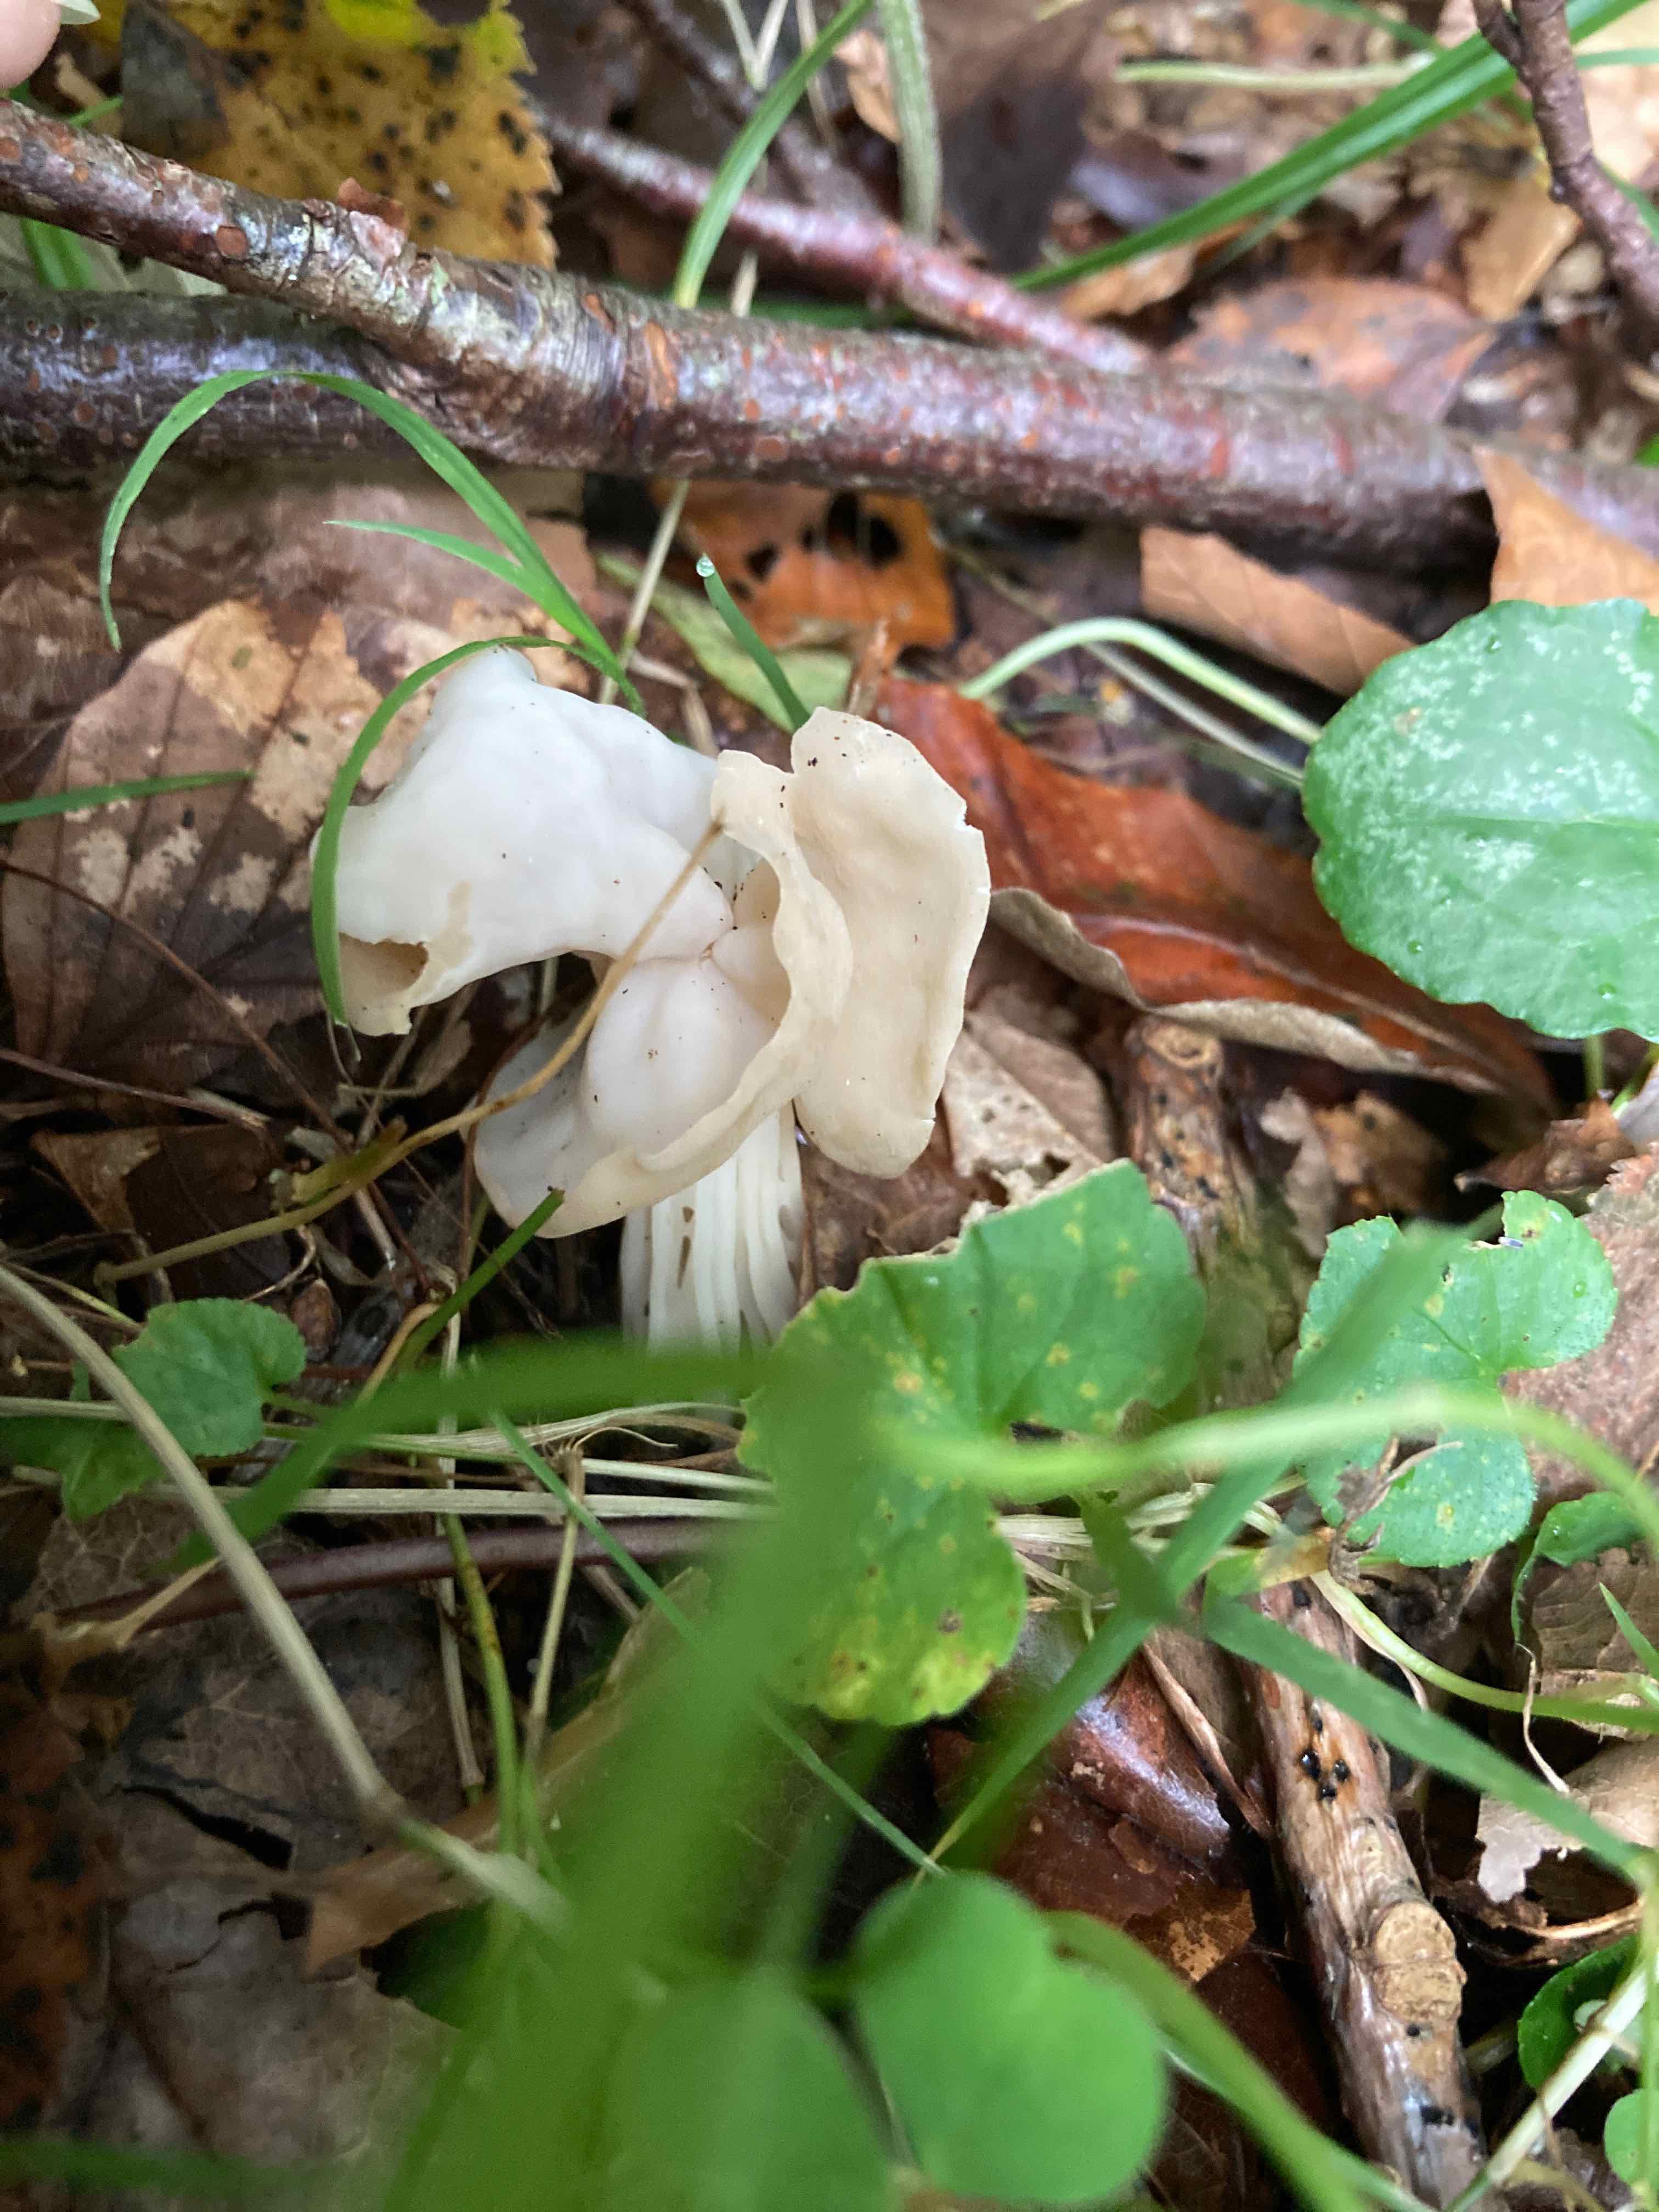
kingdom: Fungi
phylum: Ascomycota
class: Pezizomycetes
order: Pezizales
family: Helvellaceae
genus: Helvella
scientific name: Helvella crispa
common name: kruset foldhat
